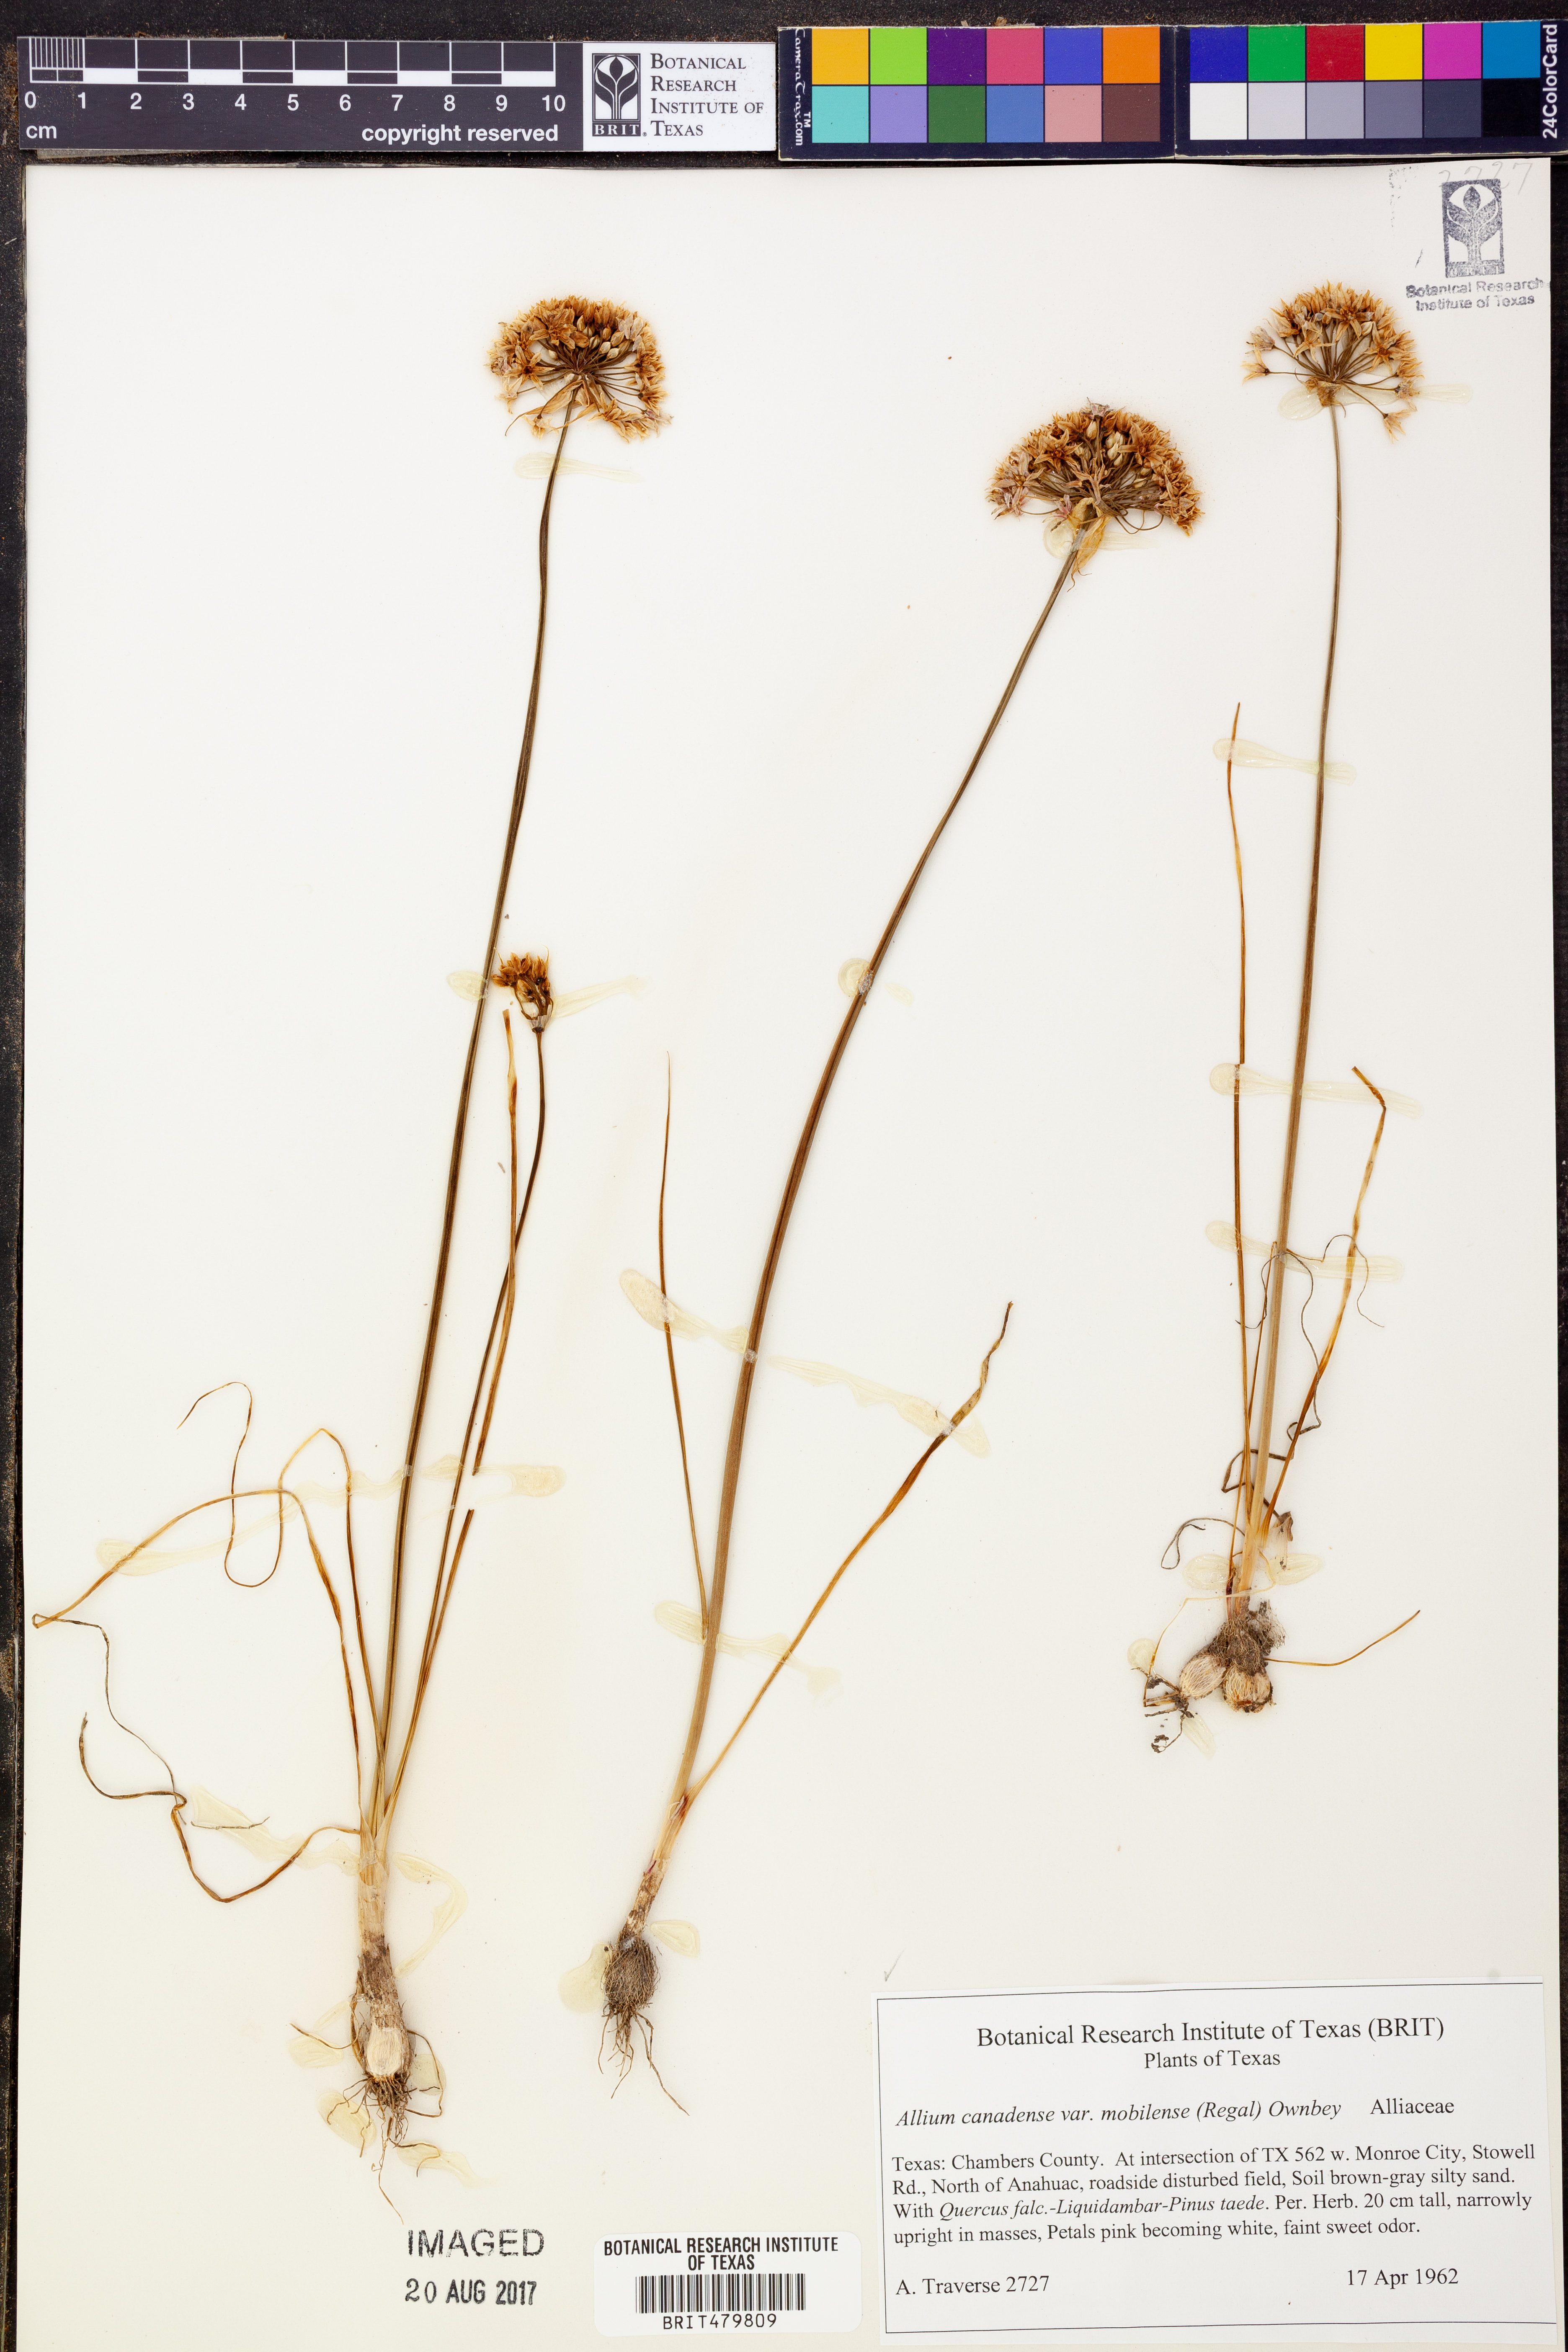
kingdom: Plantae
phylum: Tracheophyta
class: Liliopsida
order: Asparagales
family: Amaryllidaceae
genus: Allium
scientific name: Allium canadense
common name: Meadow garlic
